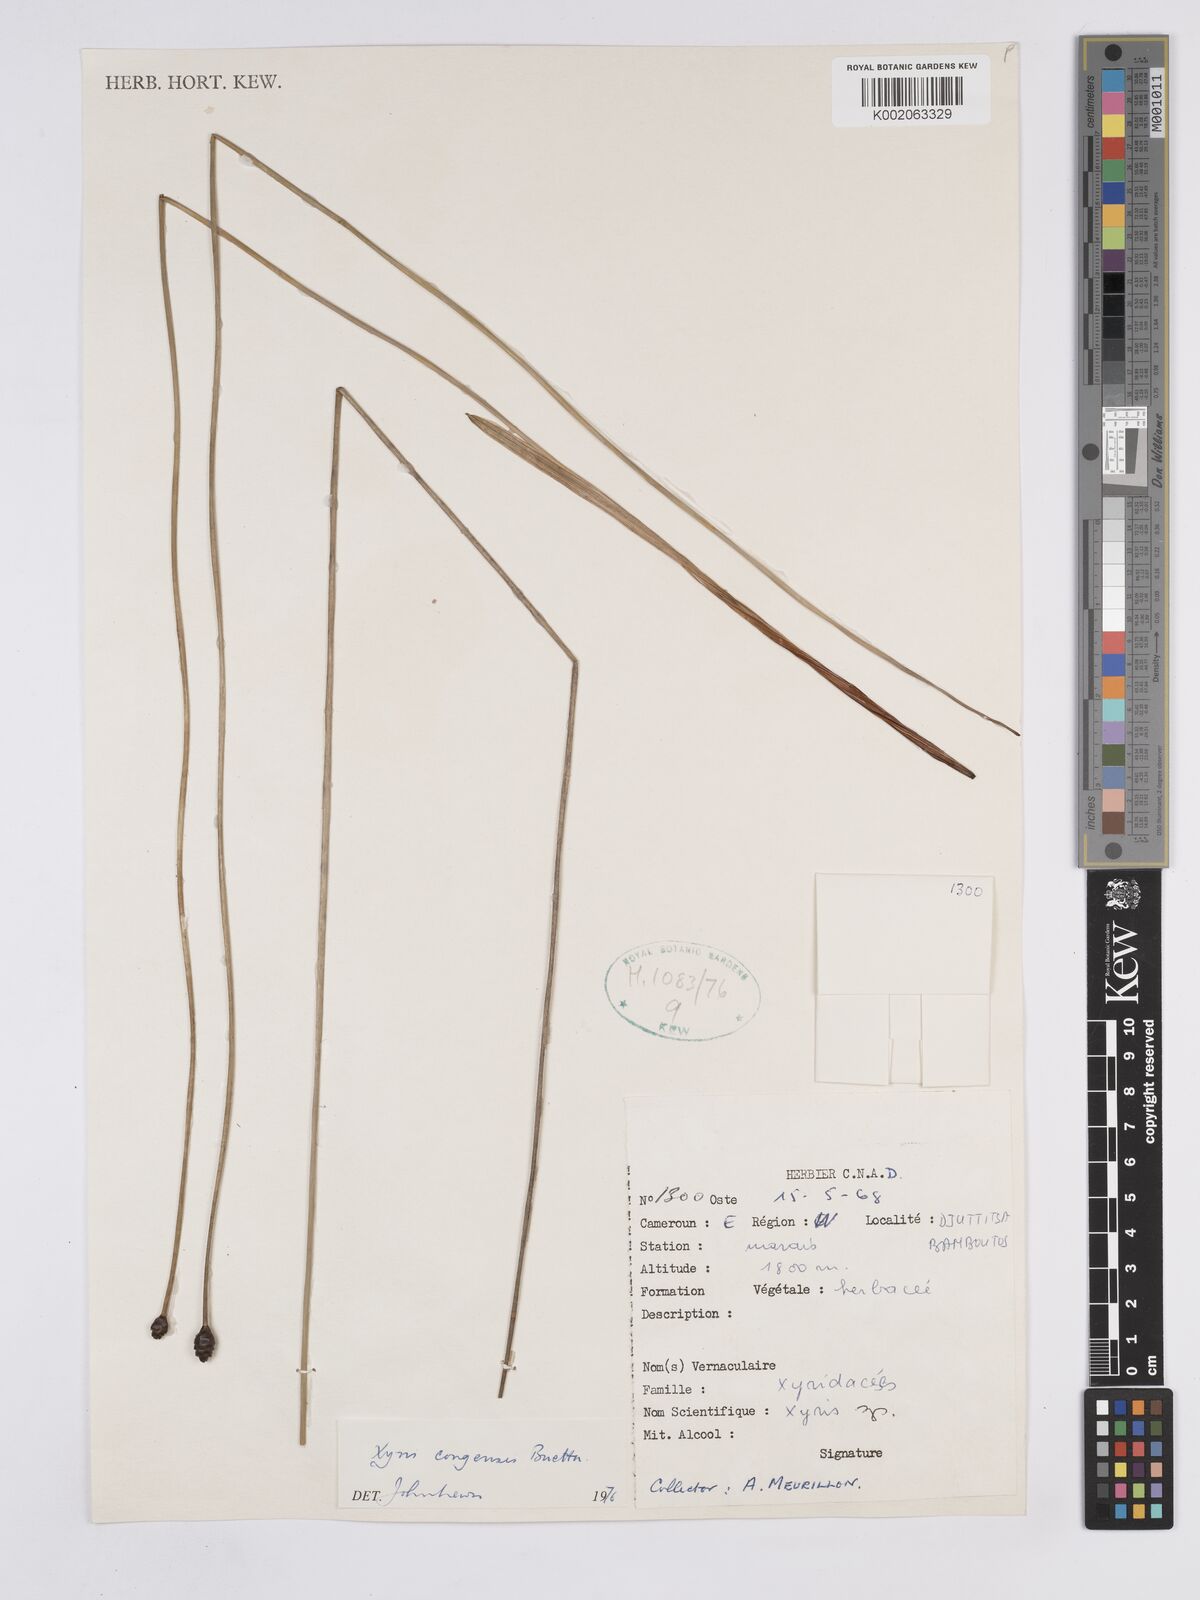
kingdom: Plantae
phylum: Tracheophyta
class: Liliopsida
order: Poales
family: Xyridaceae
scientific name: Xyridaceae
